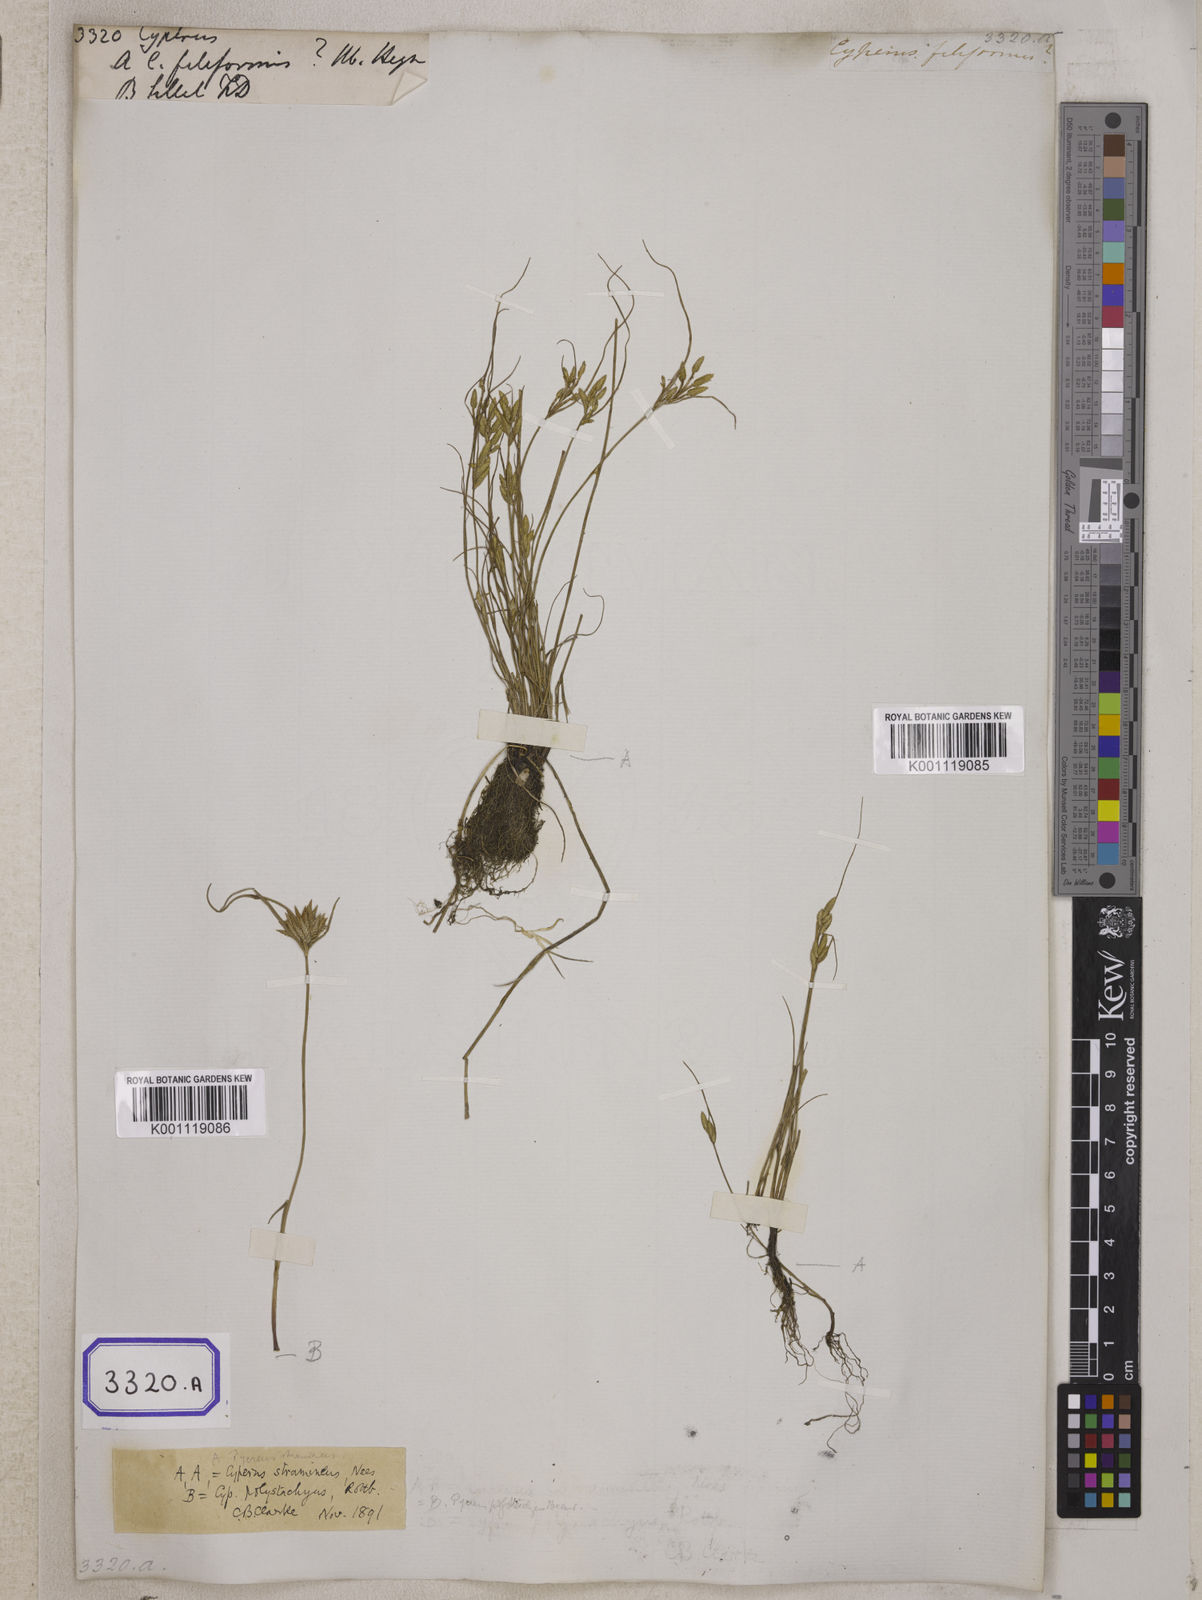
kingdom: Plantae
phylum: Tracheophyta
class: Liliopsida
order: Poales
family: Cyperaceae
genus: Cyperus
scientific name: Cyperus
